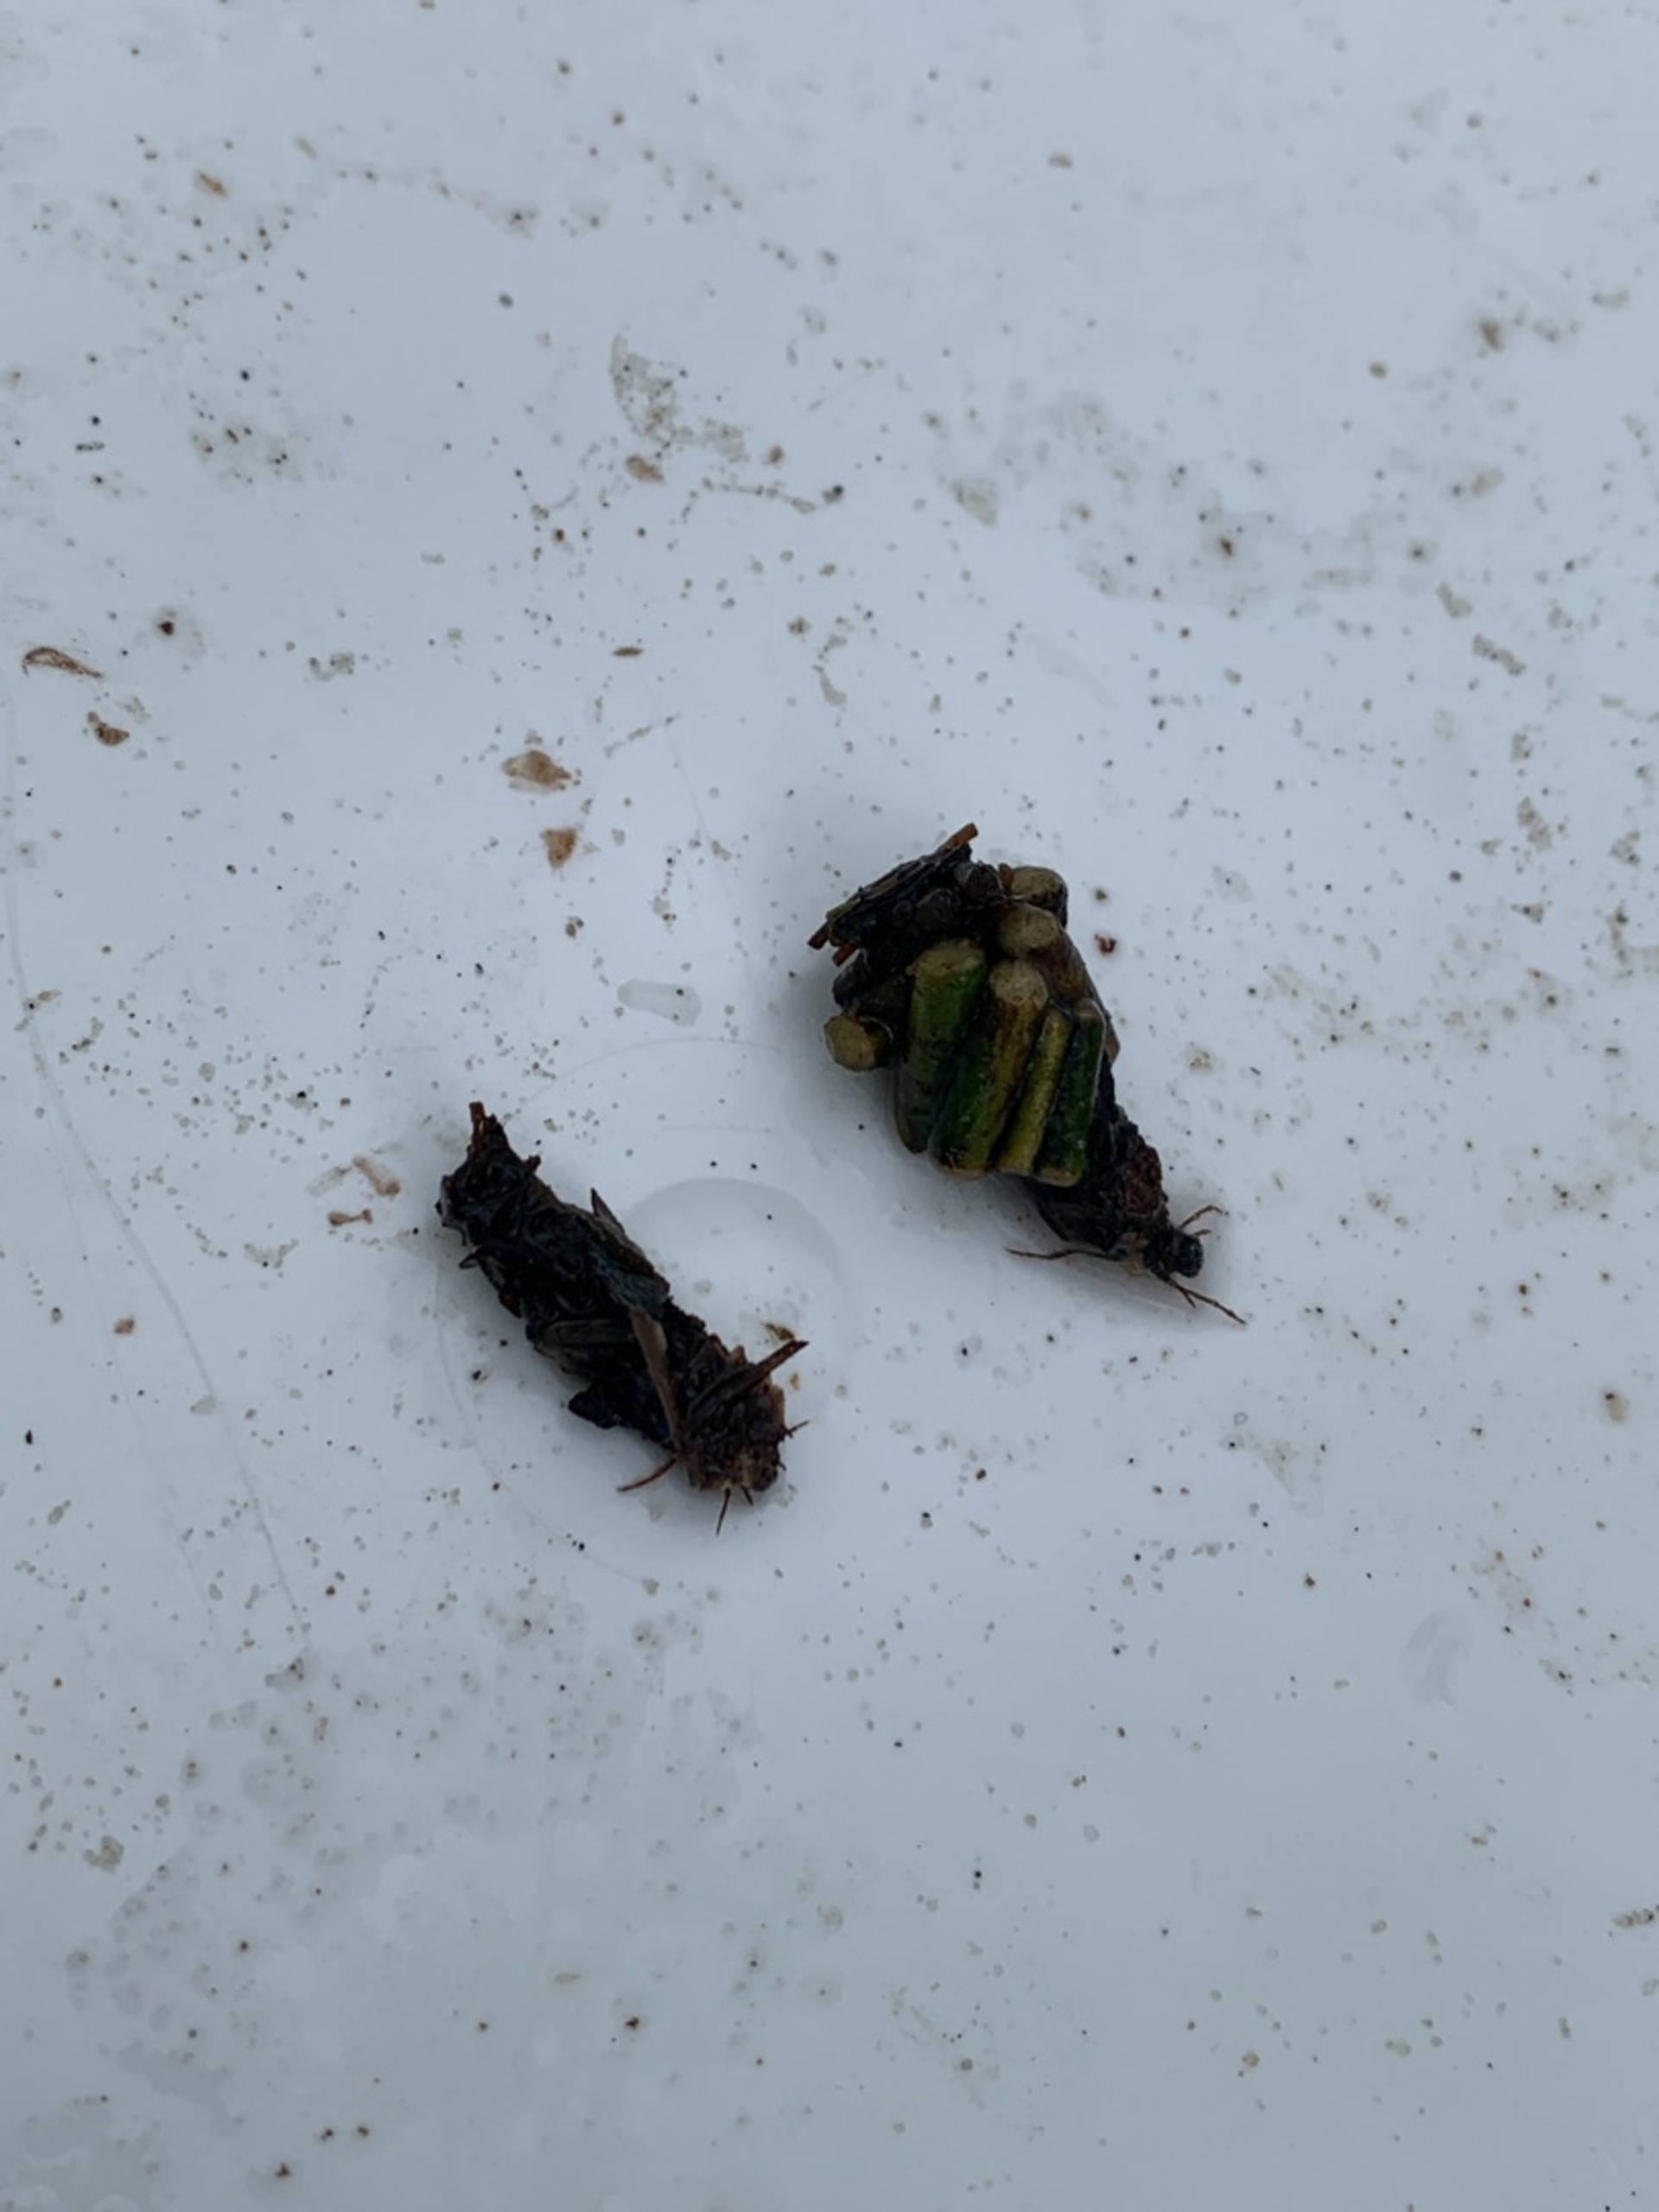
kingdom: Animalia
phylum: Arthropoda
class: Insecta
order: Trichoptera
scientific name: Trichoptera
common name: Vårfluer
